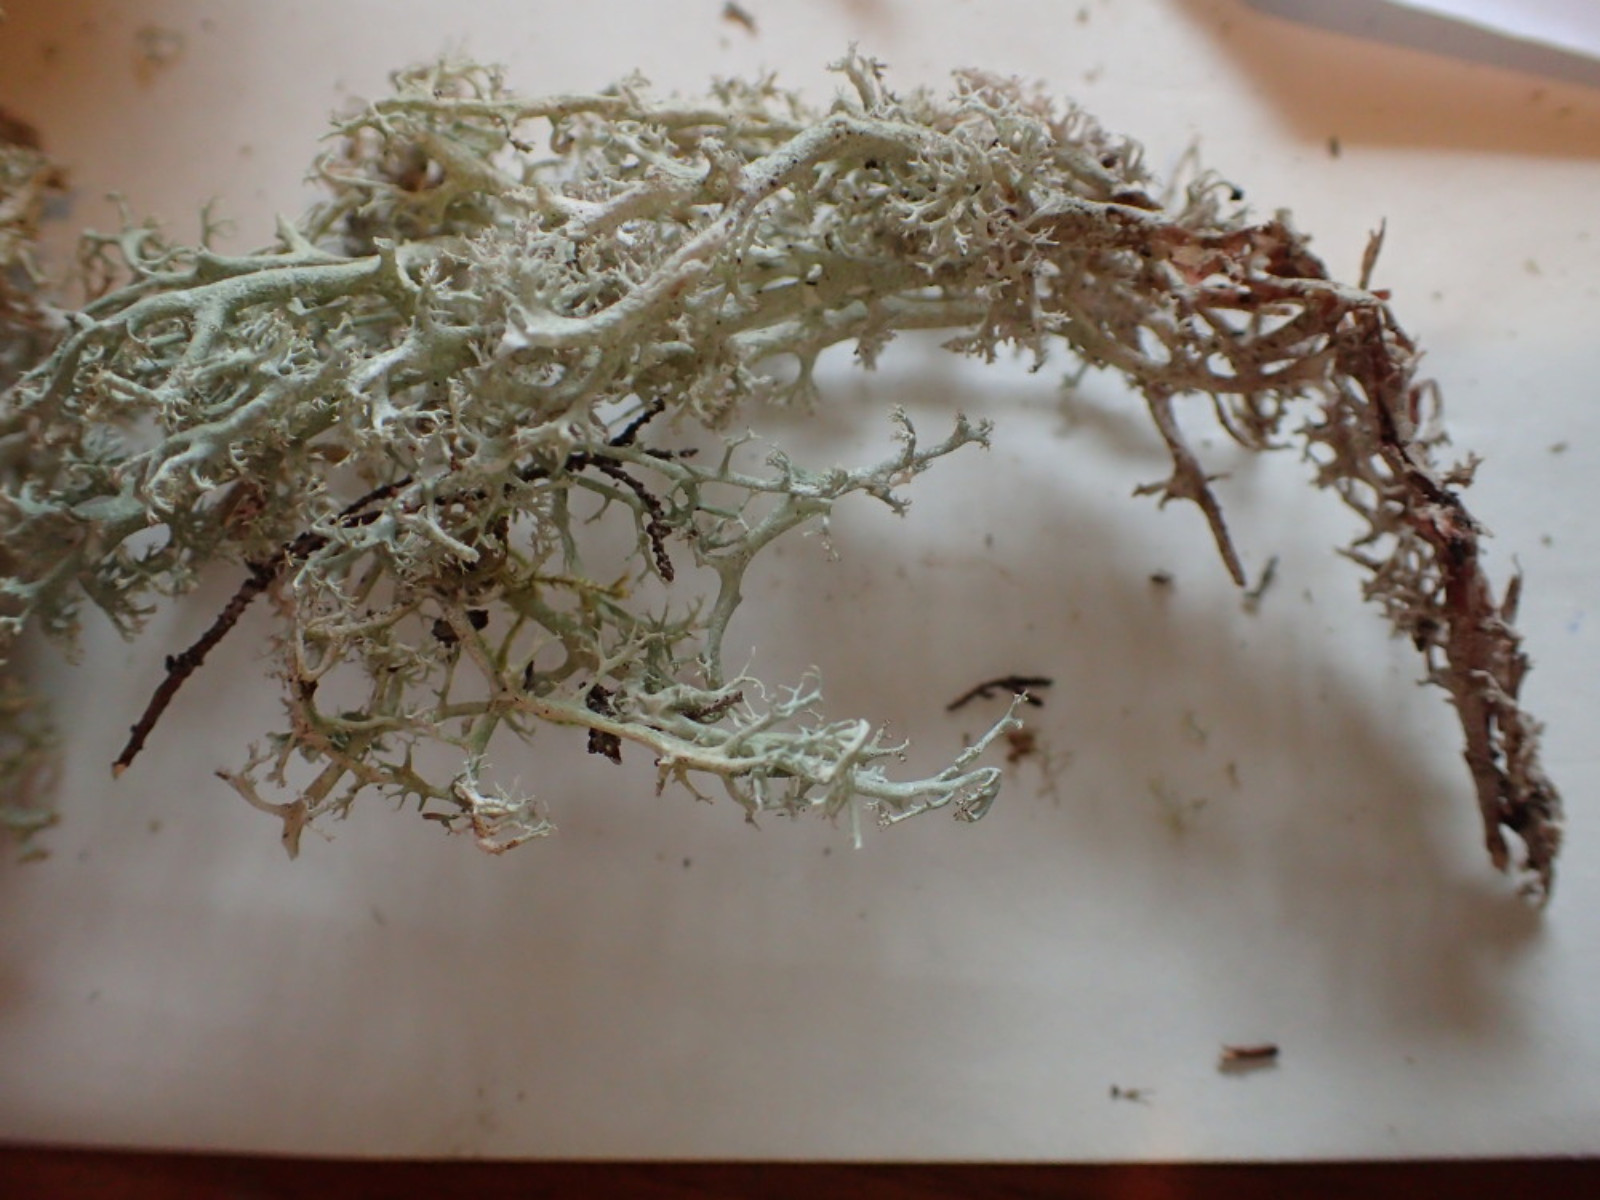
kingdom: Fungi
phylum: Ascomycota
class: Lecanoromycetes
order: Lecanorales
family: Cladoniaceae
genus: Cladonia
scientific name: Cladonia rangiferina
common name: askegrå rensdyrlav
